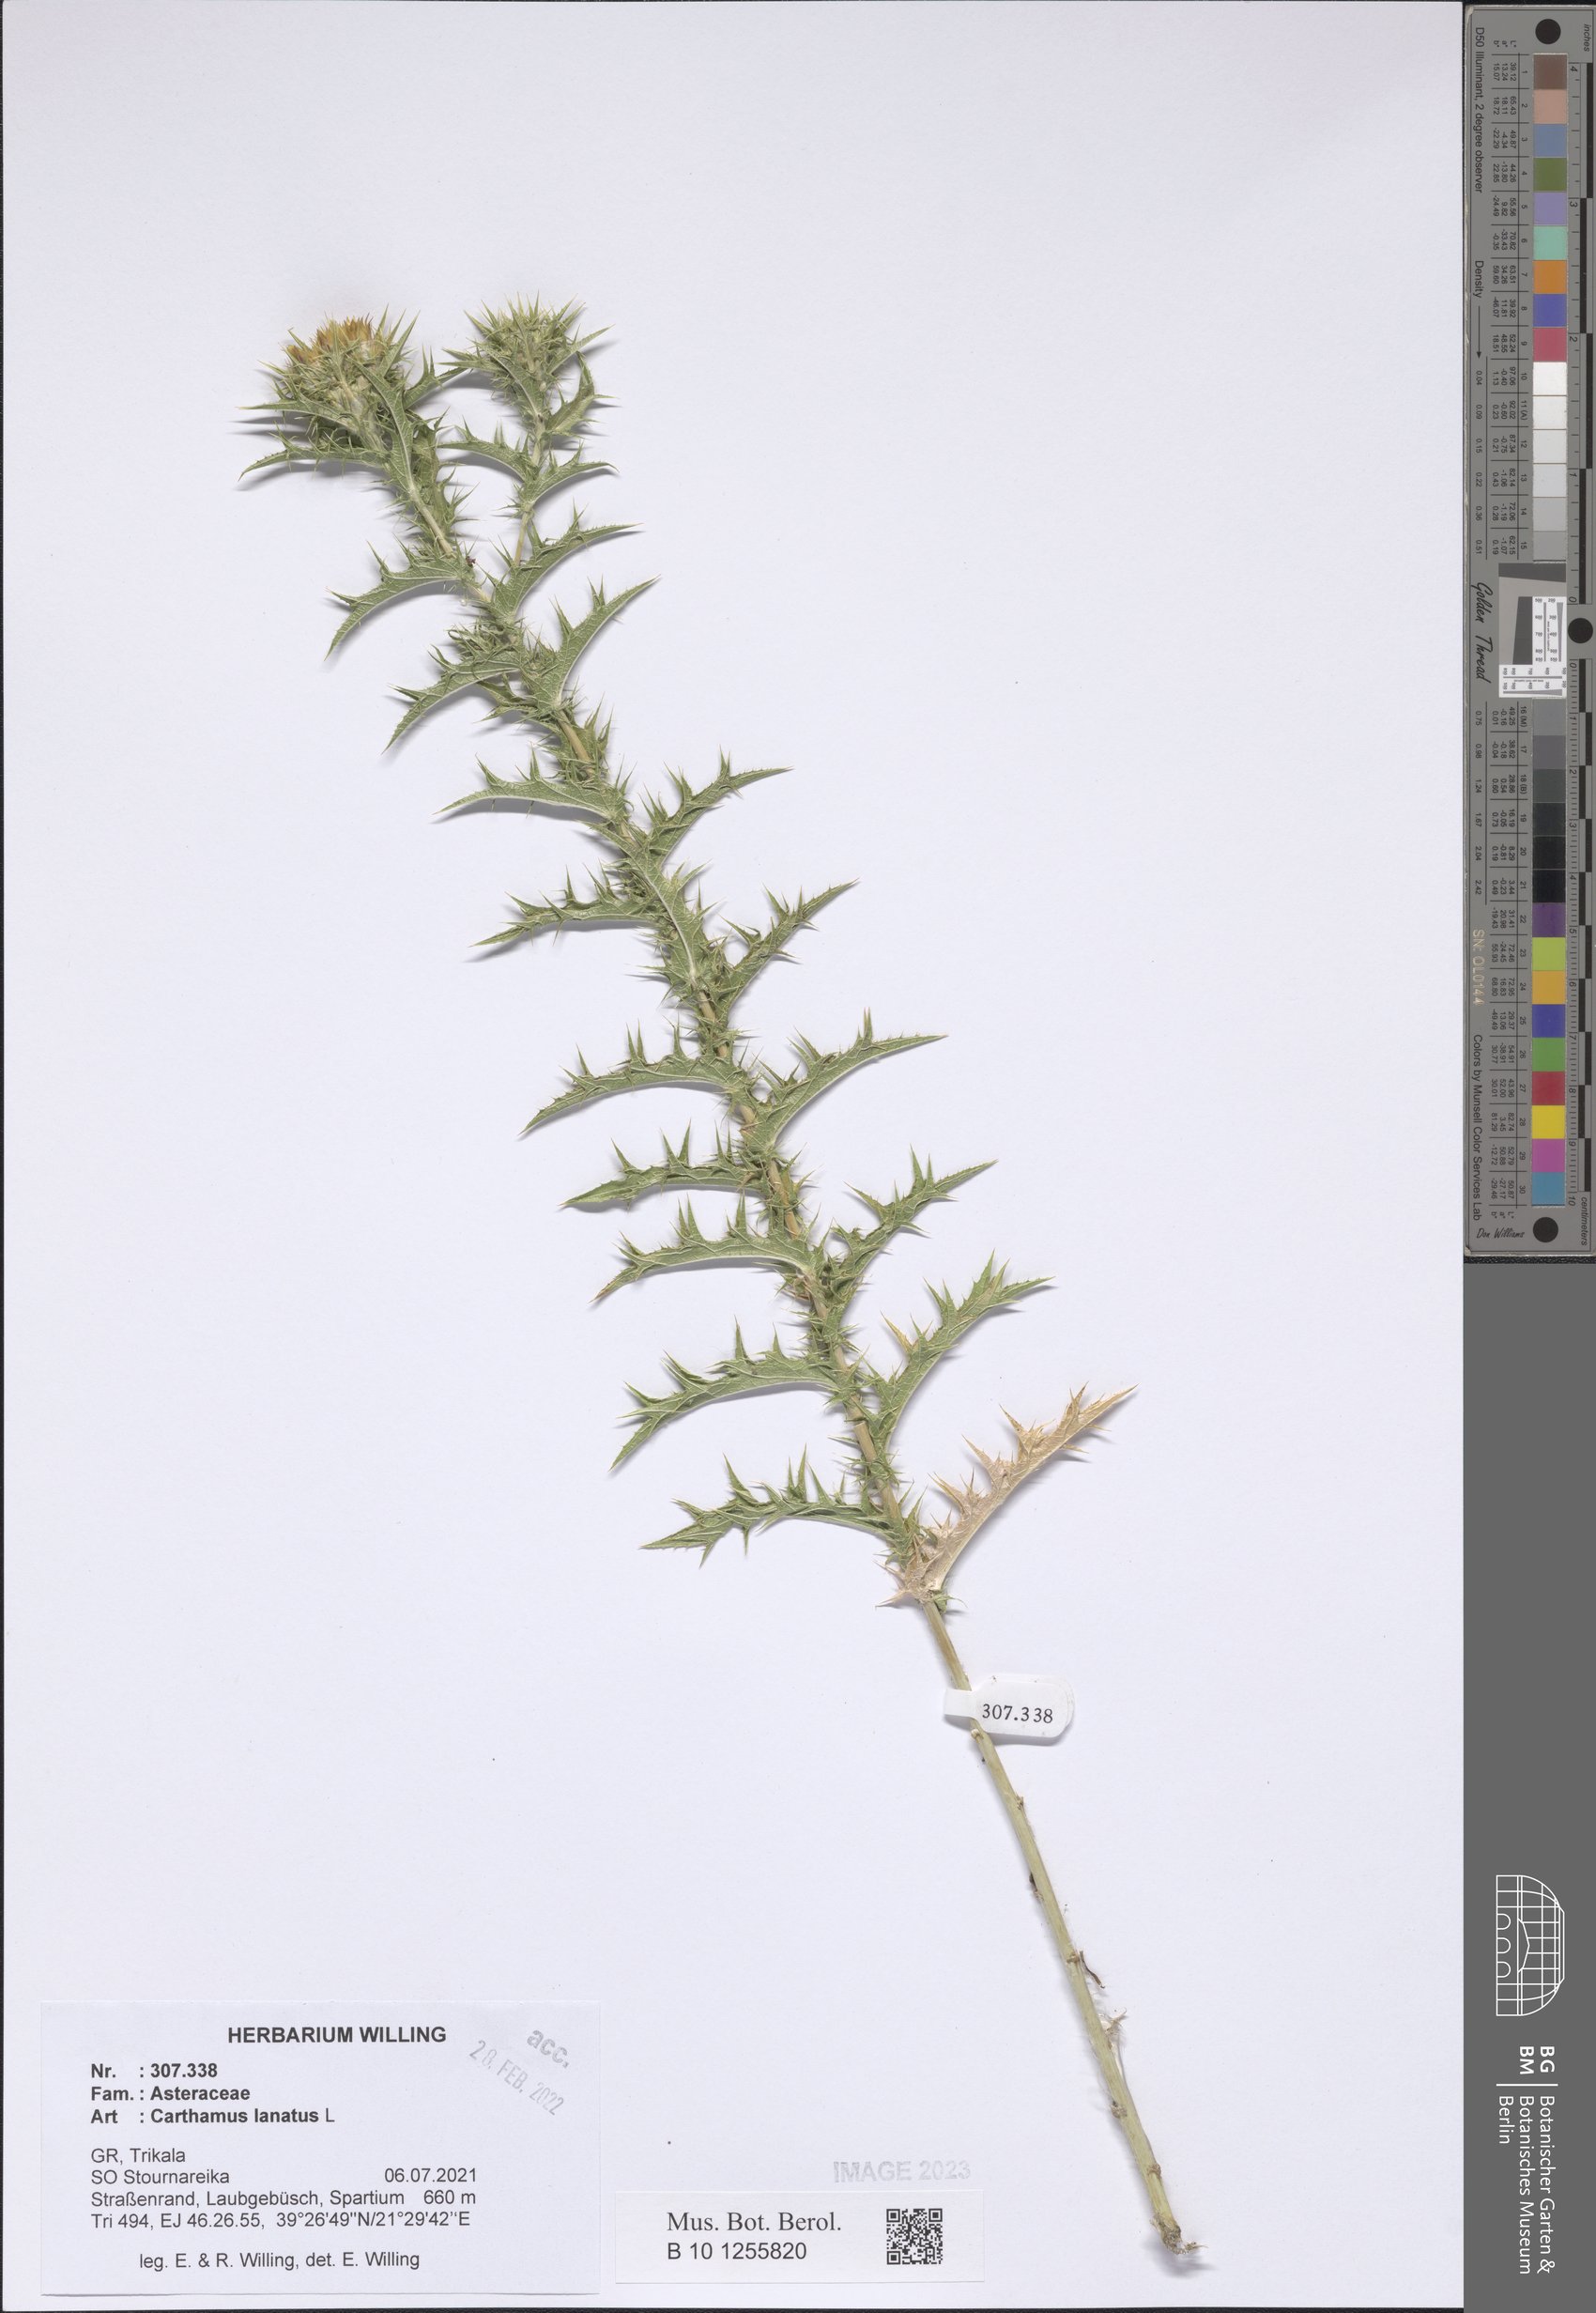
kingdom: Plantae
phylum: Tracheophyta
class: Magnoliopsida
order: Asterales
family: Asteraceae
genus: Carthamus
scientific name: Carthamus lanatus
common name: Downy safflower
